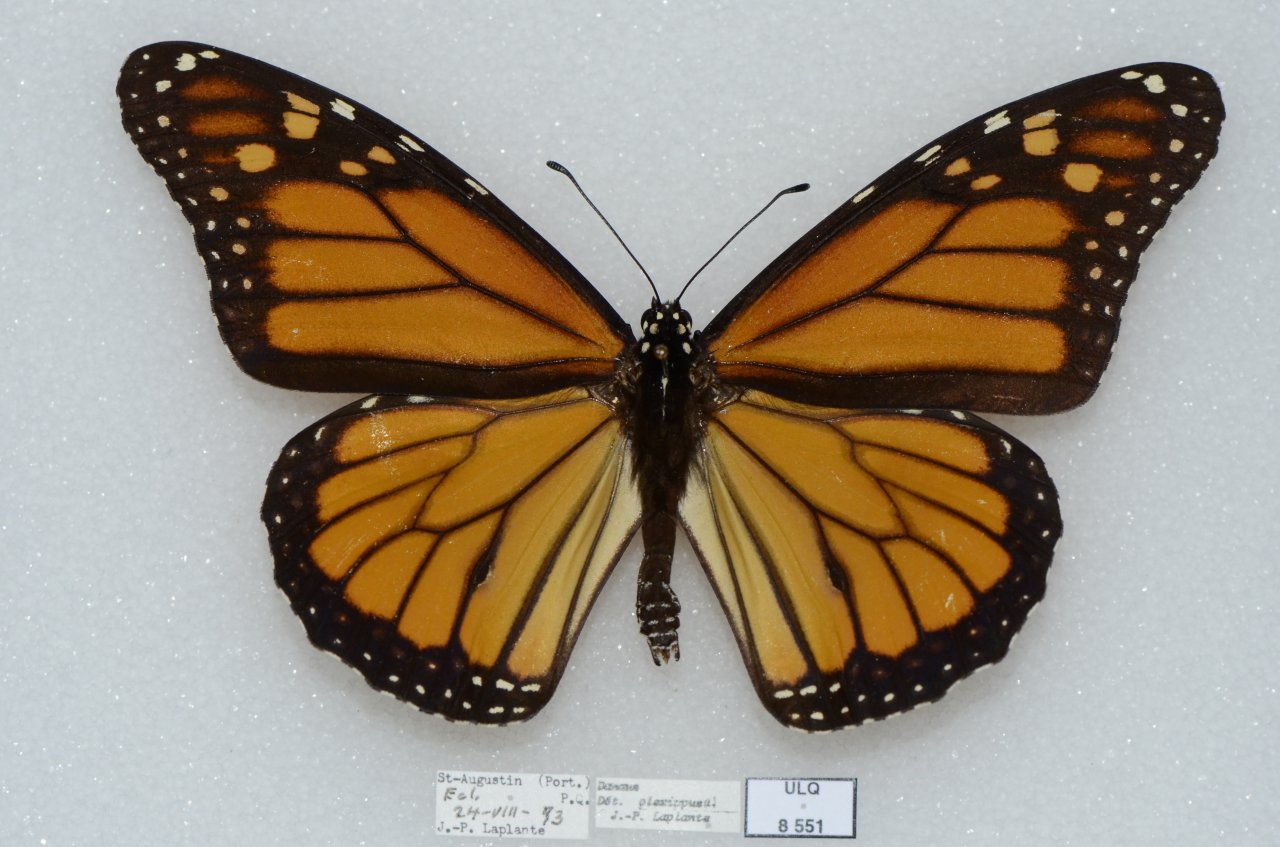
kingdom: Animalia
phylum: Arthropoda
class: Insecta
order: Lepidoptera
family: Nymphalidae
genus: Danaus
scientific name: Danaus plexippus
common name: Monarch
